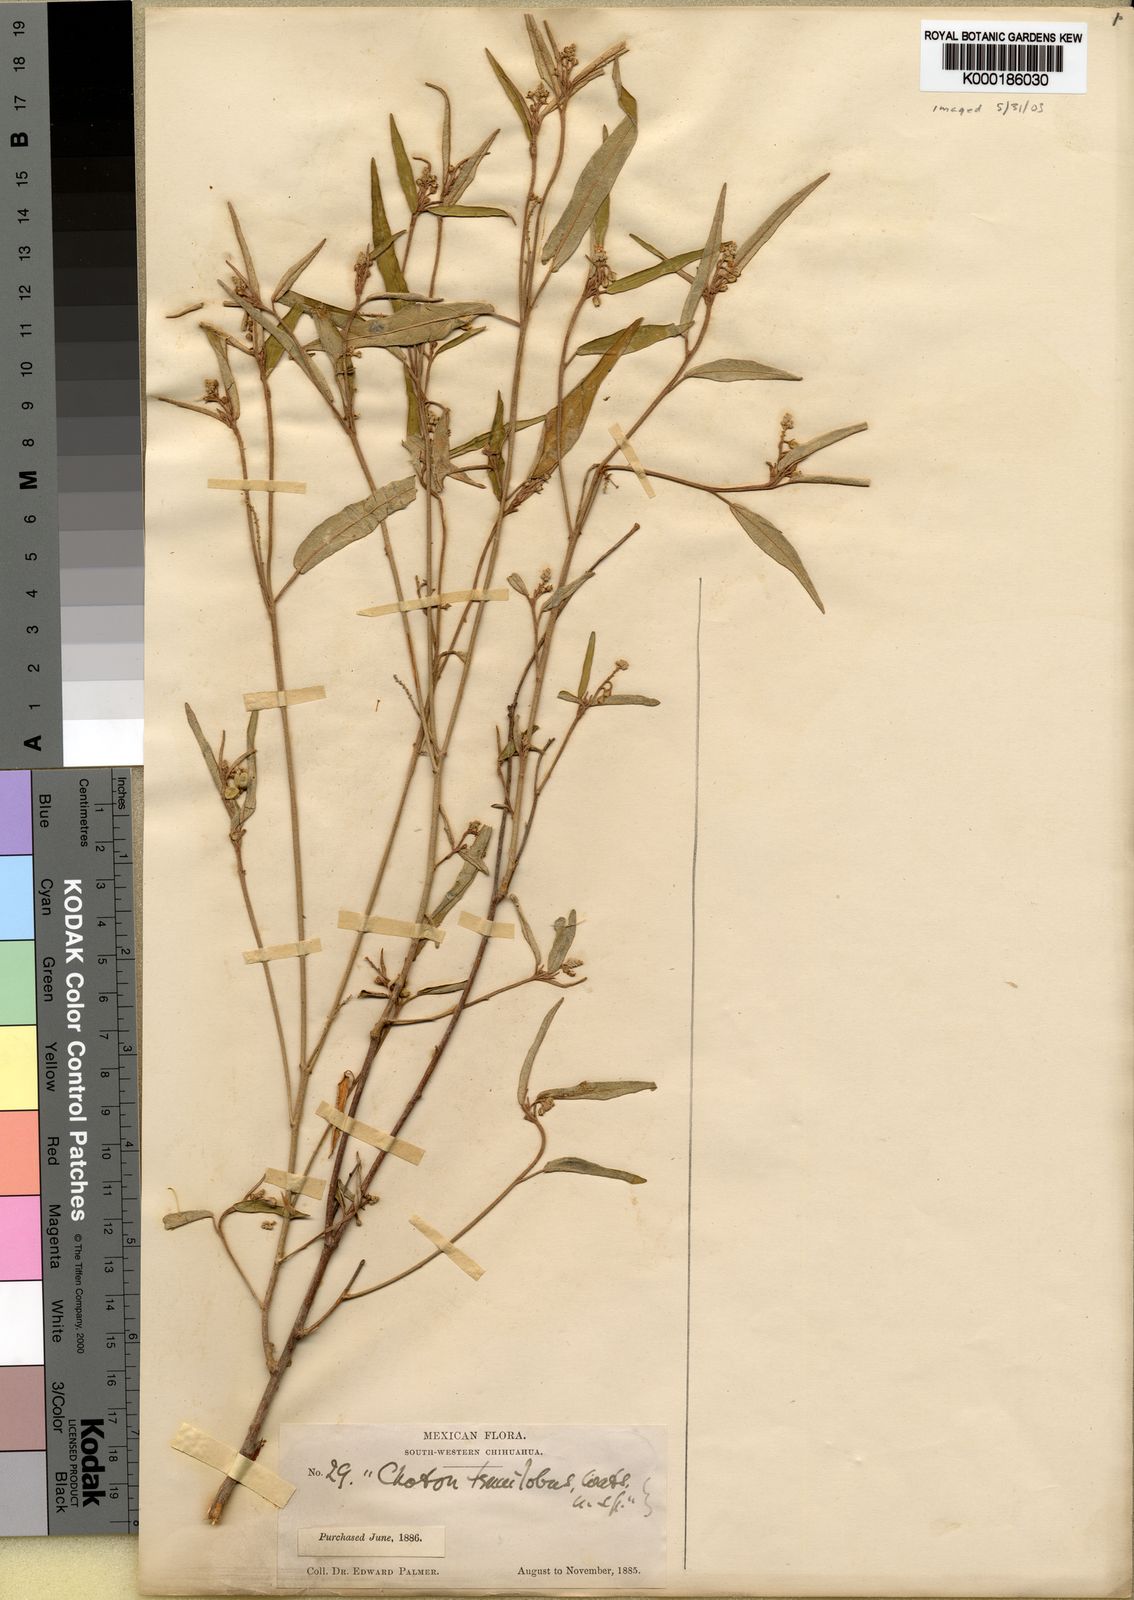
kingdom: Plantae
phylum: Tracheophyta
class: Magnoliopsida
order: Malpighiales
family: Euphorbiaceae
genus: Croton
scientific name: Croton tenuilobus
